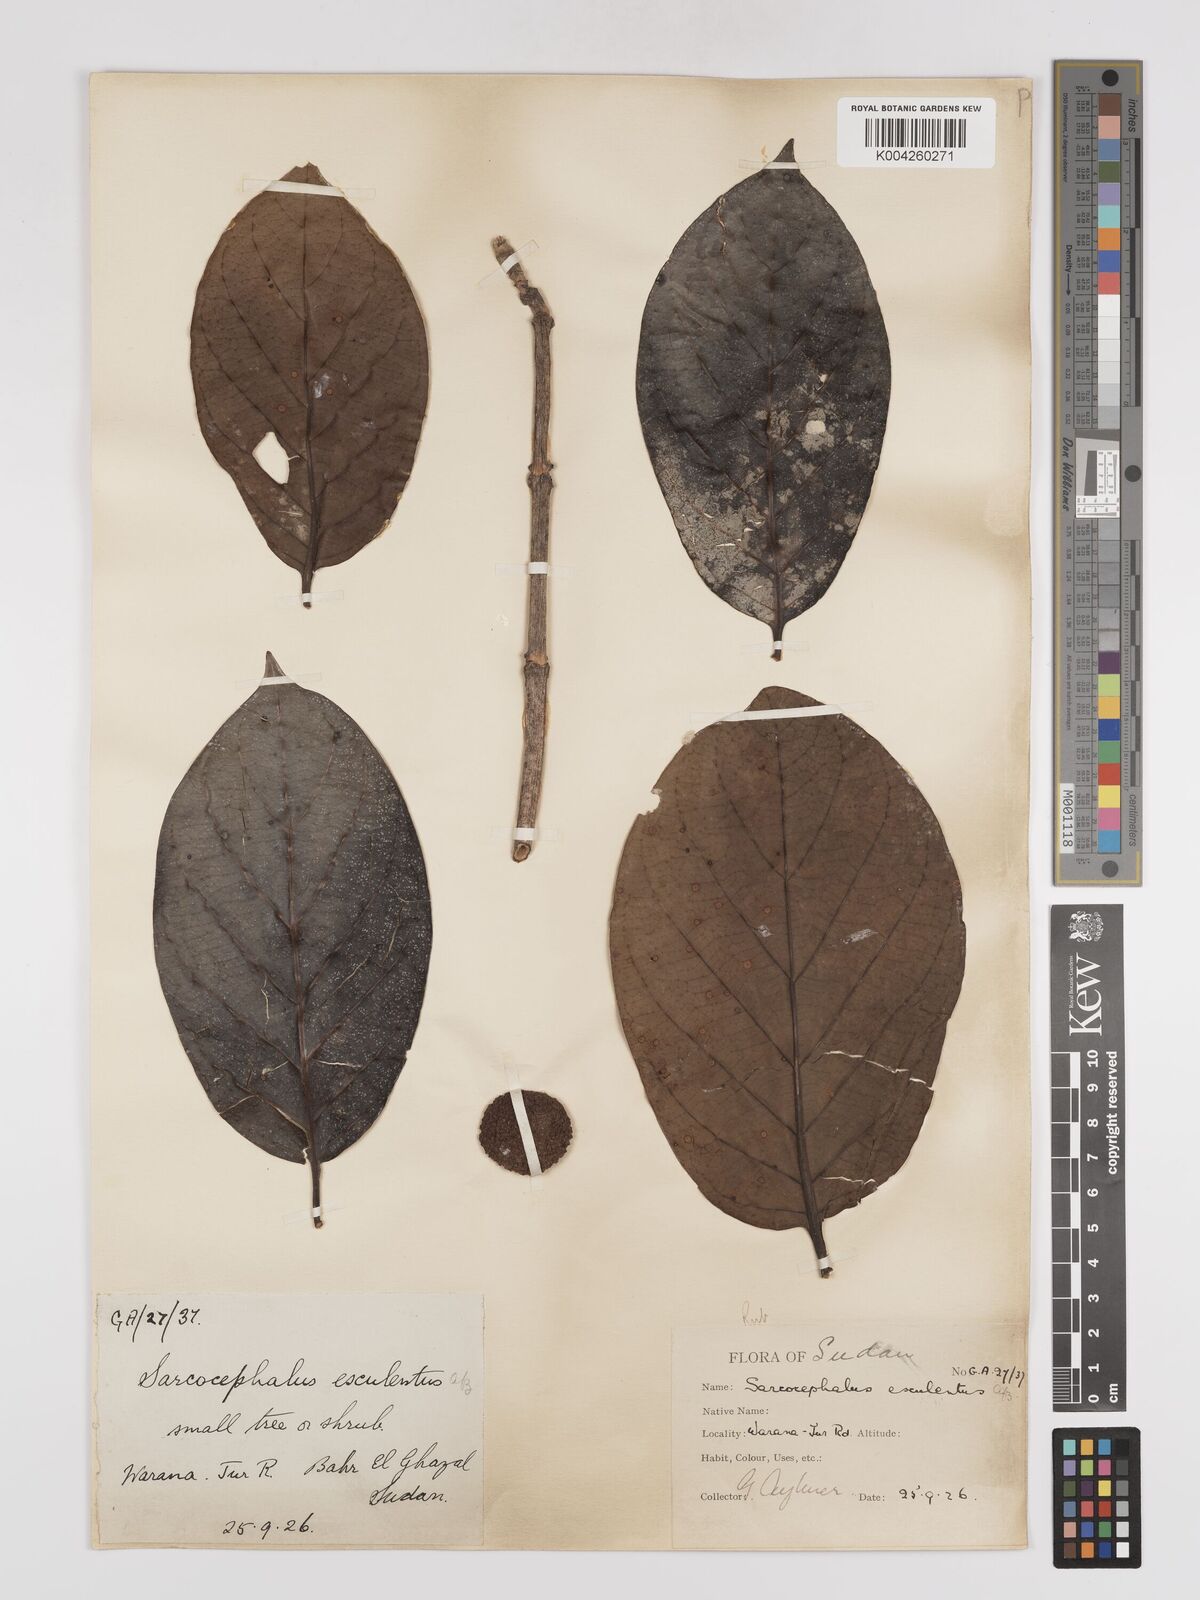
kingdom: Plantae
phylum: Tracheophyta
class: Magnoliopsida
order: Gentianales
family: Rubiaceae
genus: Nauclea
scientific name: Nauclea
